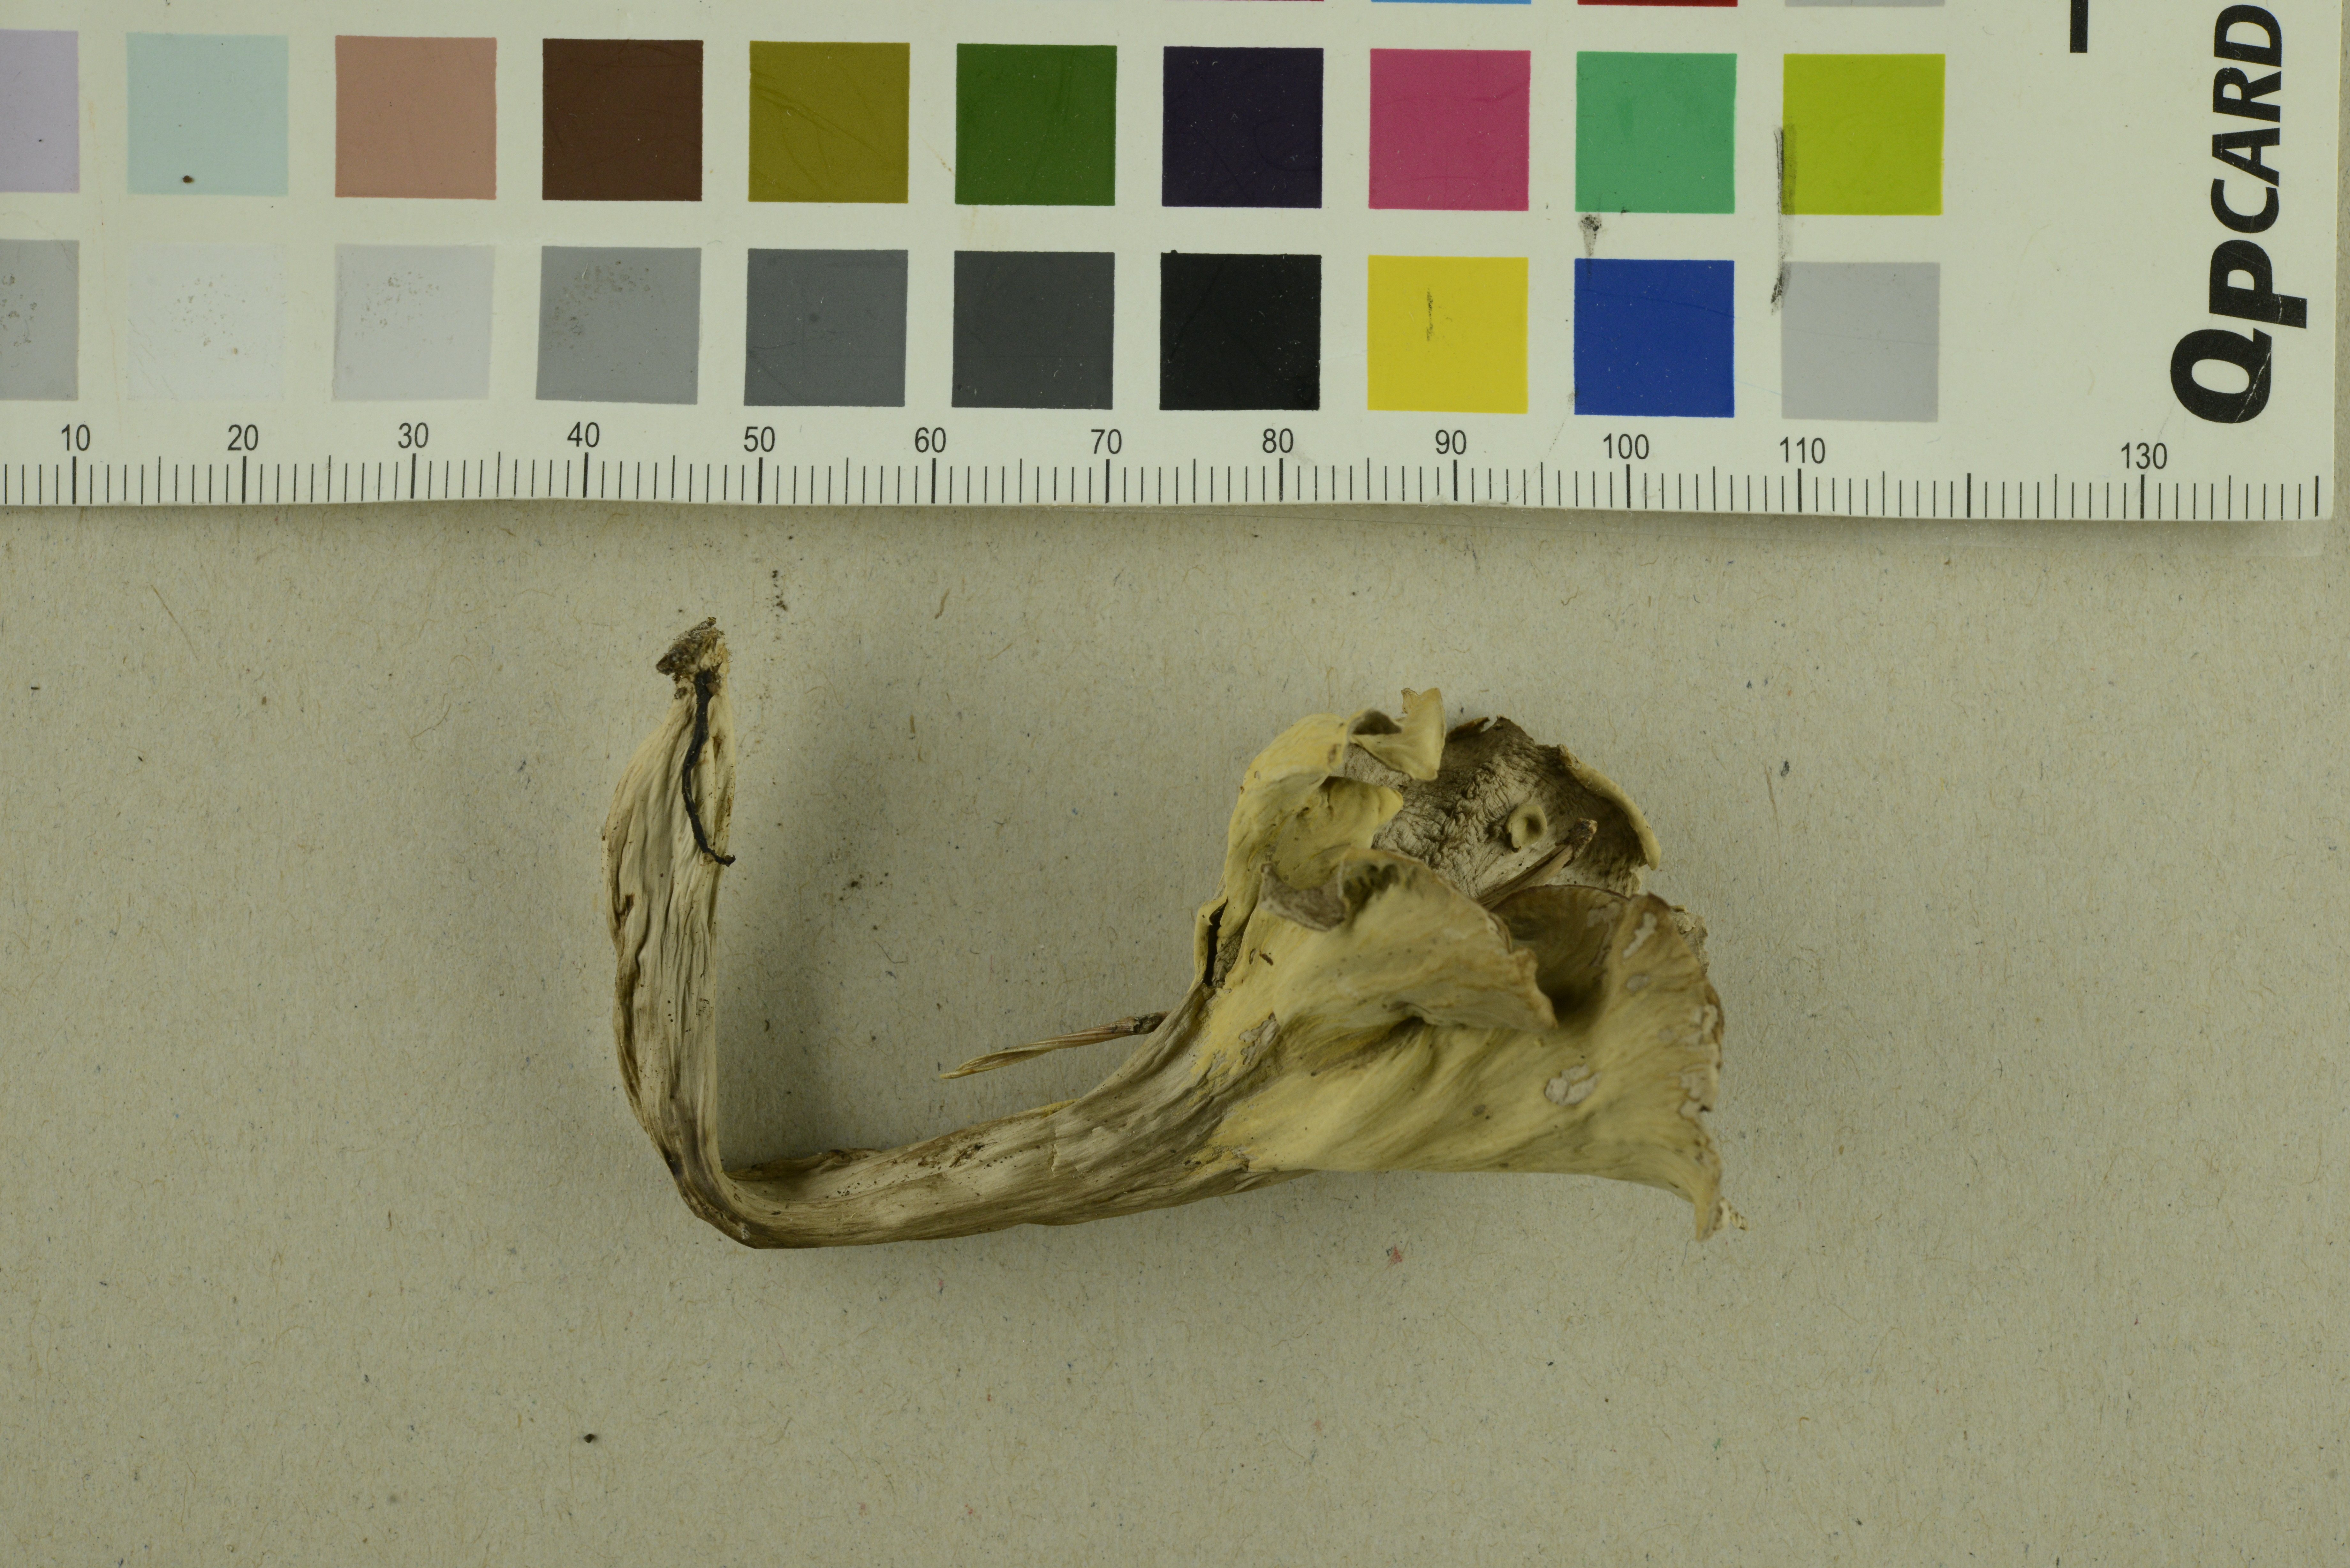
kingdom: Fungi
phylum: Basidiomycota
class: Agaricomycetes
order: Cantharellales
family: Hydnaceae
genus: Craterellus
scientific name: Craterellus caeruleofuscus
